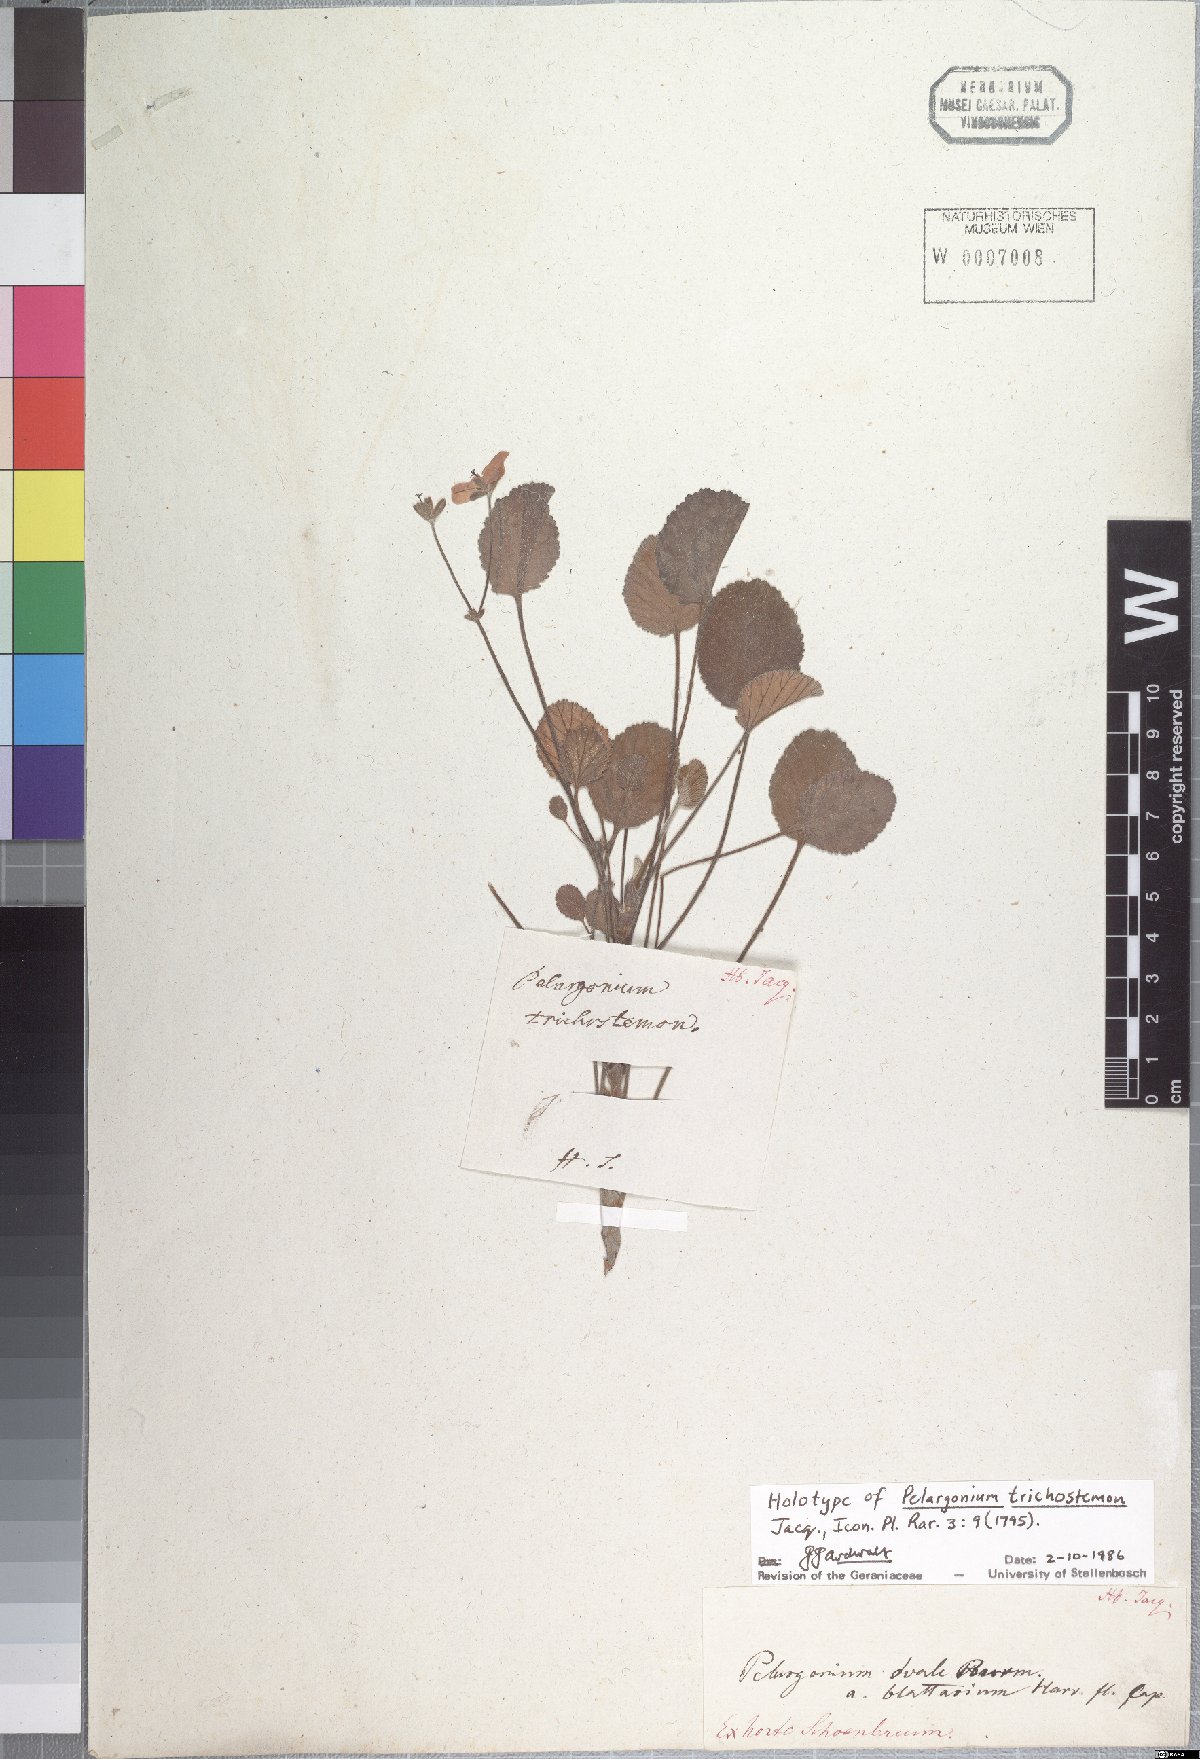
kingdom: Plantae
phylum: Tracheophyta
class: Magnoliopsida
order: Geraniales
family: Geraniaceae
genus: Pelargonium
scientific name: Pelargonium ovale
